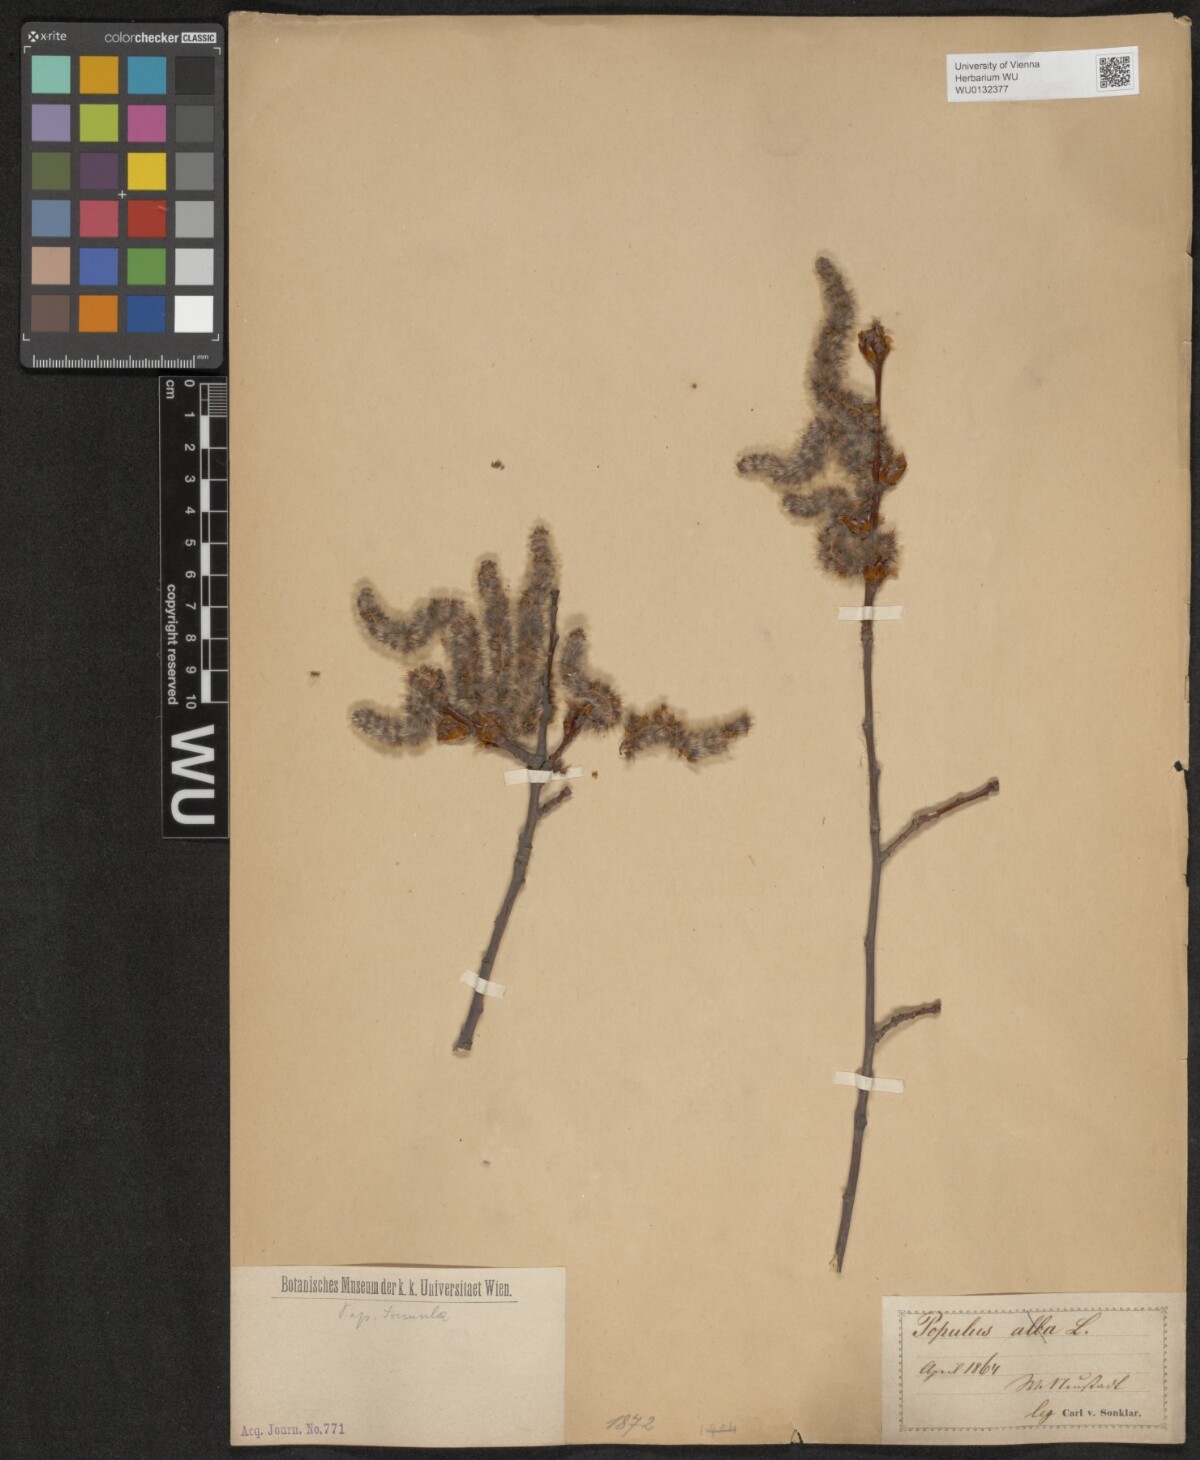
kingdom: Plantae
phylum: Tracheophyta
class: Magnoliopsida
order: Malpighiales
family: Salicaceae
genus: Populus
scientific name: Populus tremula
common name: European aspen
